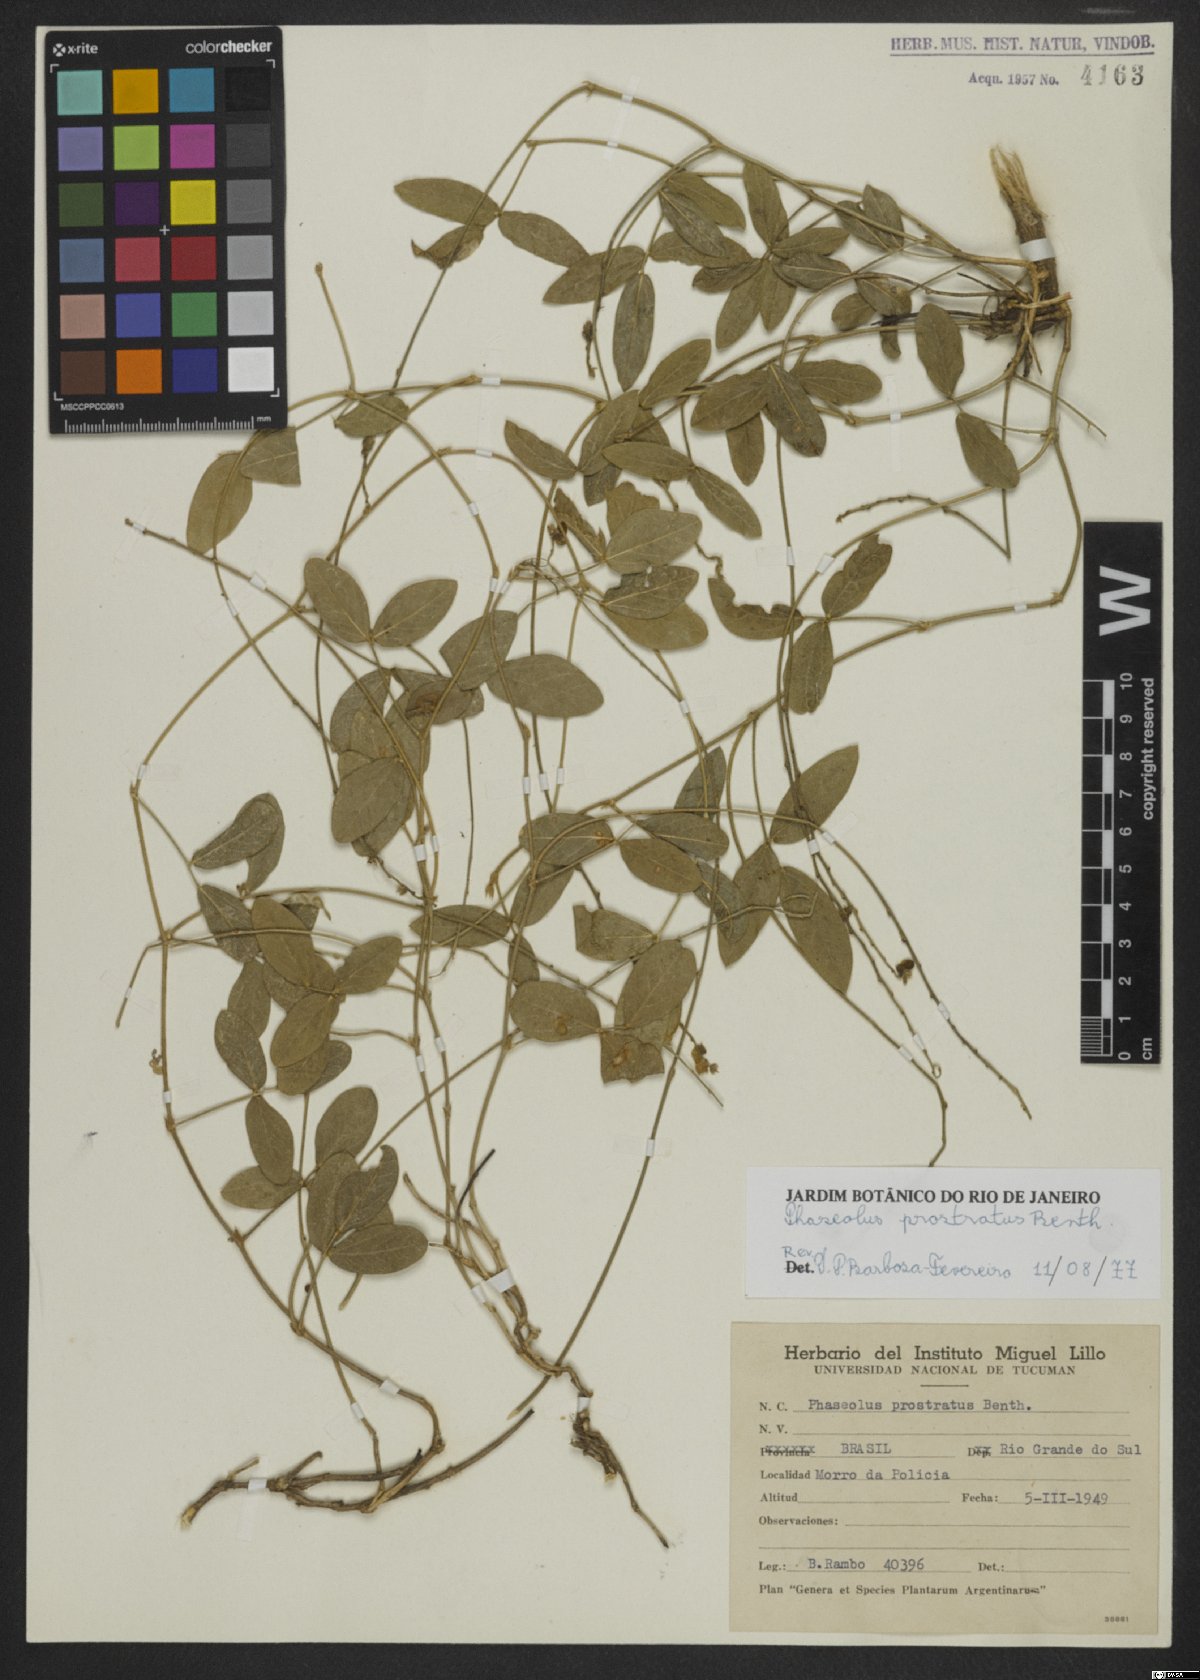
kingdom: Plantae
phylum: Tracheophyta
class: Magnoliopsida
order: Fabales
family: Fabaceae
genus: Macroptilium
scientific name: Macroptilium prostratum
